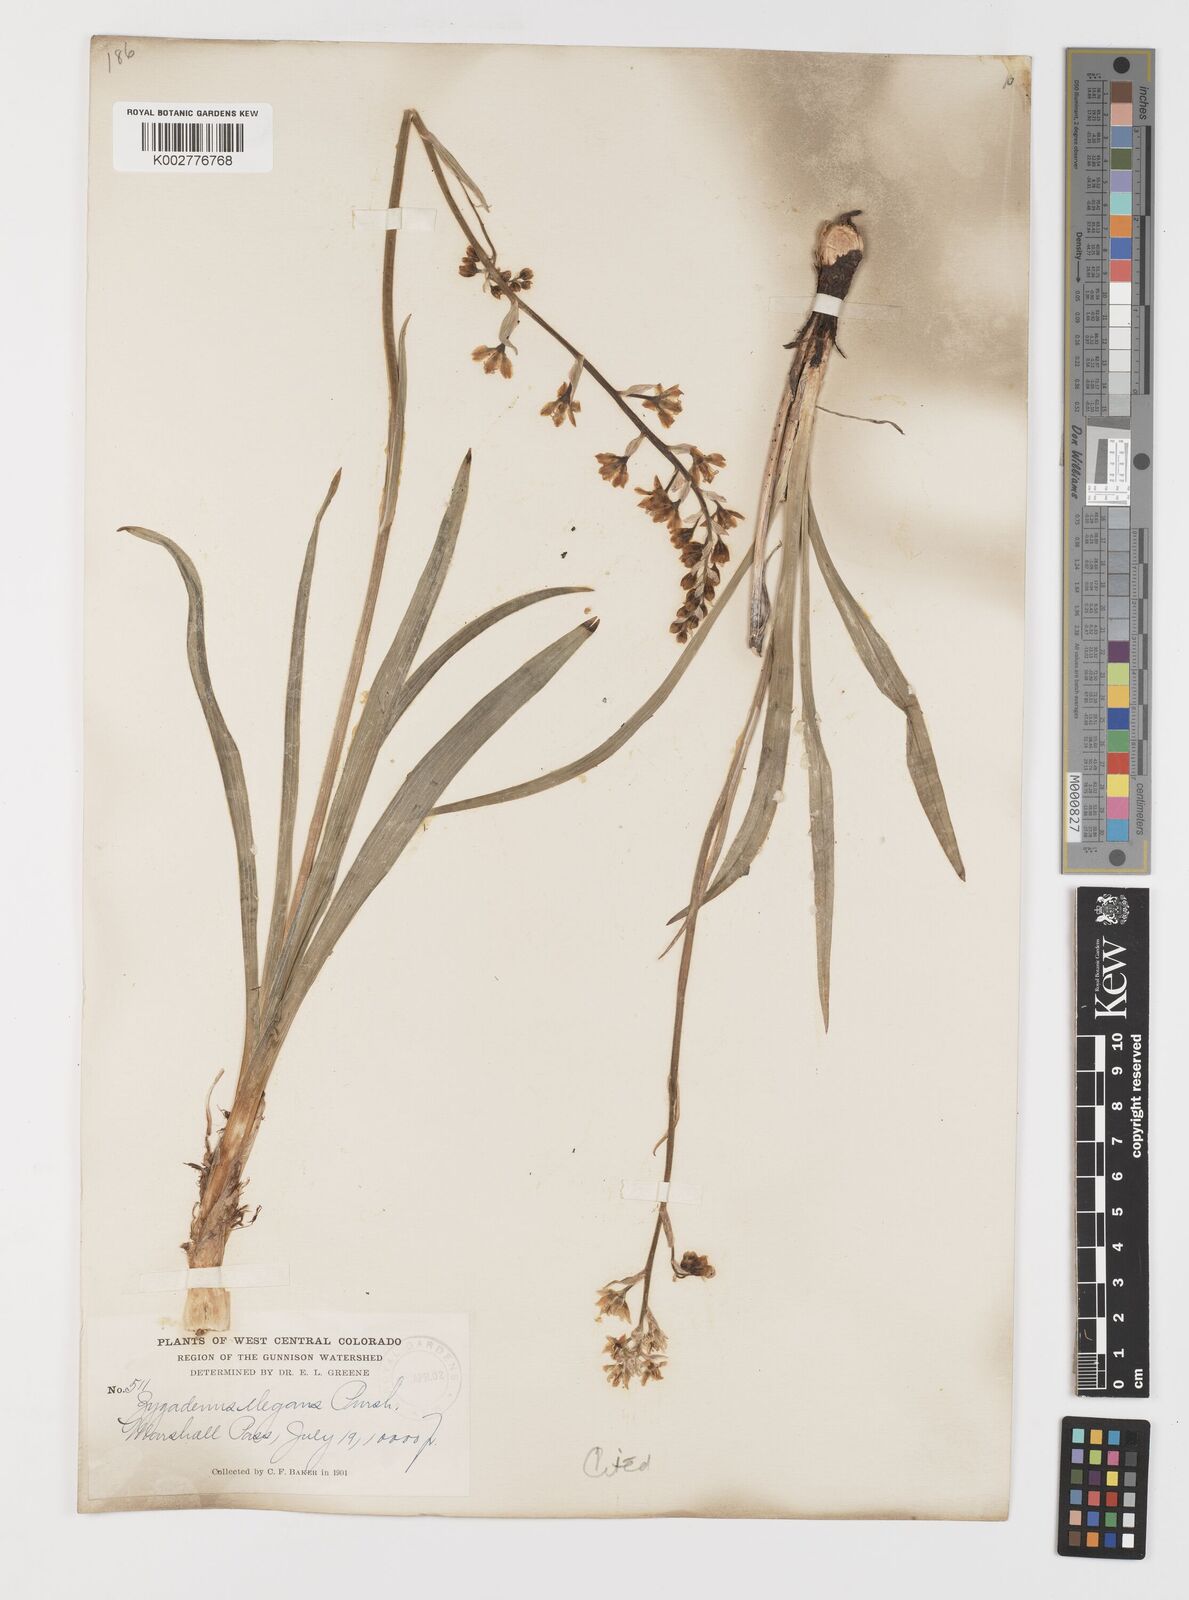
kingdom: Plantae
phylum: Tracheophyta
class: Liliopsida
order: Liliales
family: Melanthiaceae
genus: Anticlea
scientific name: Anticlea elegans
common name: Mountain death camas
